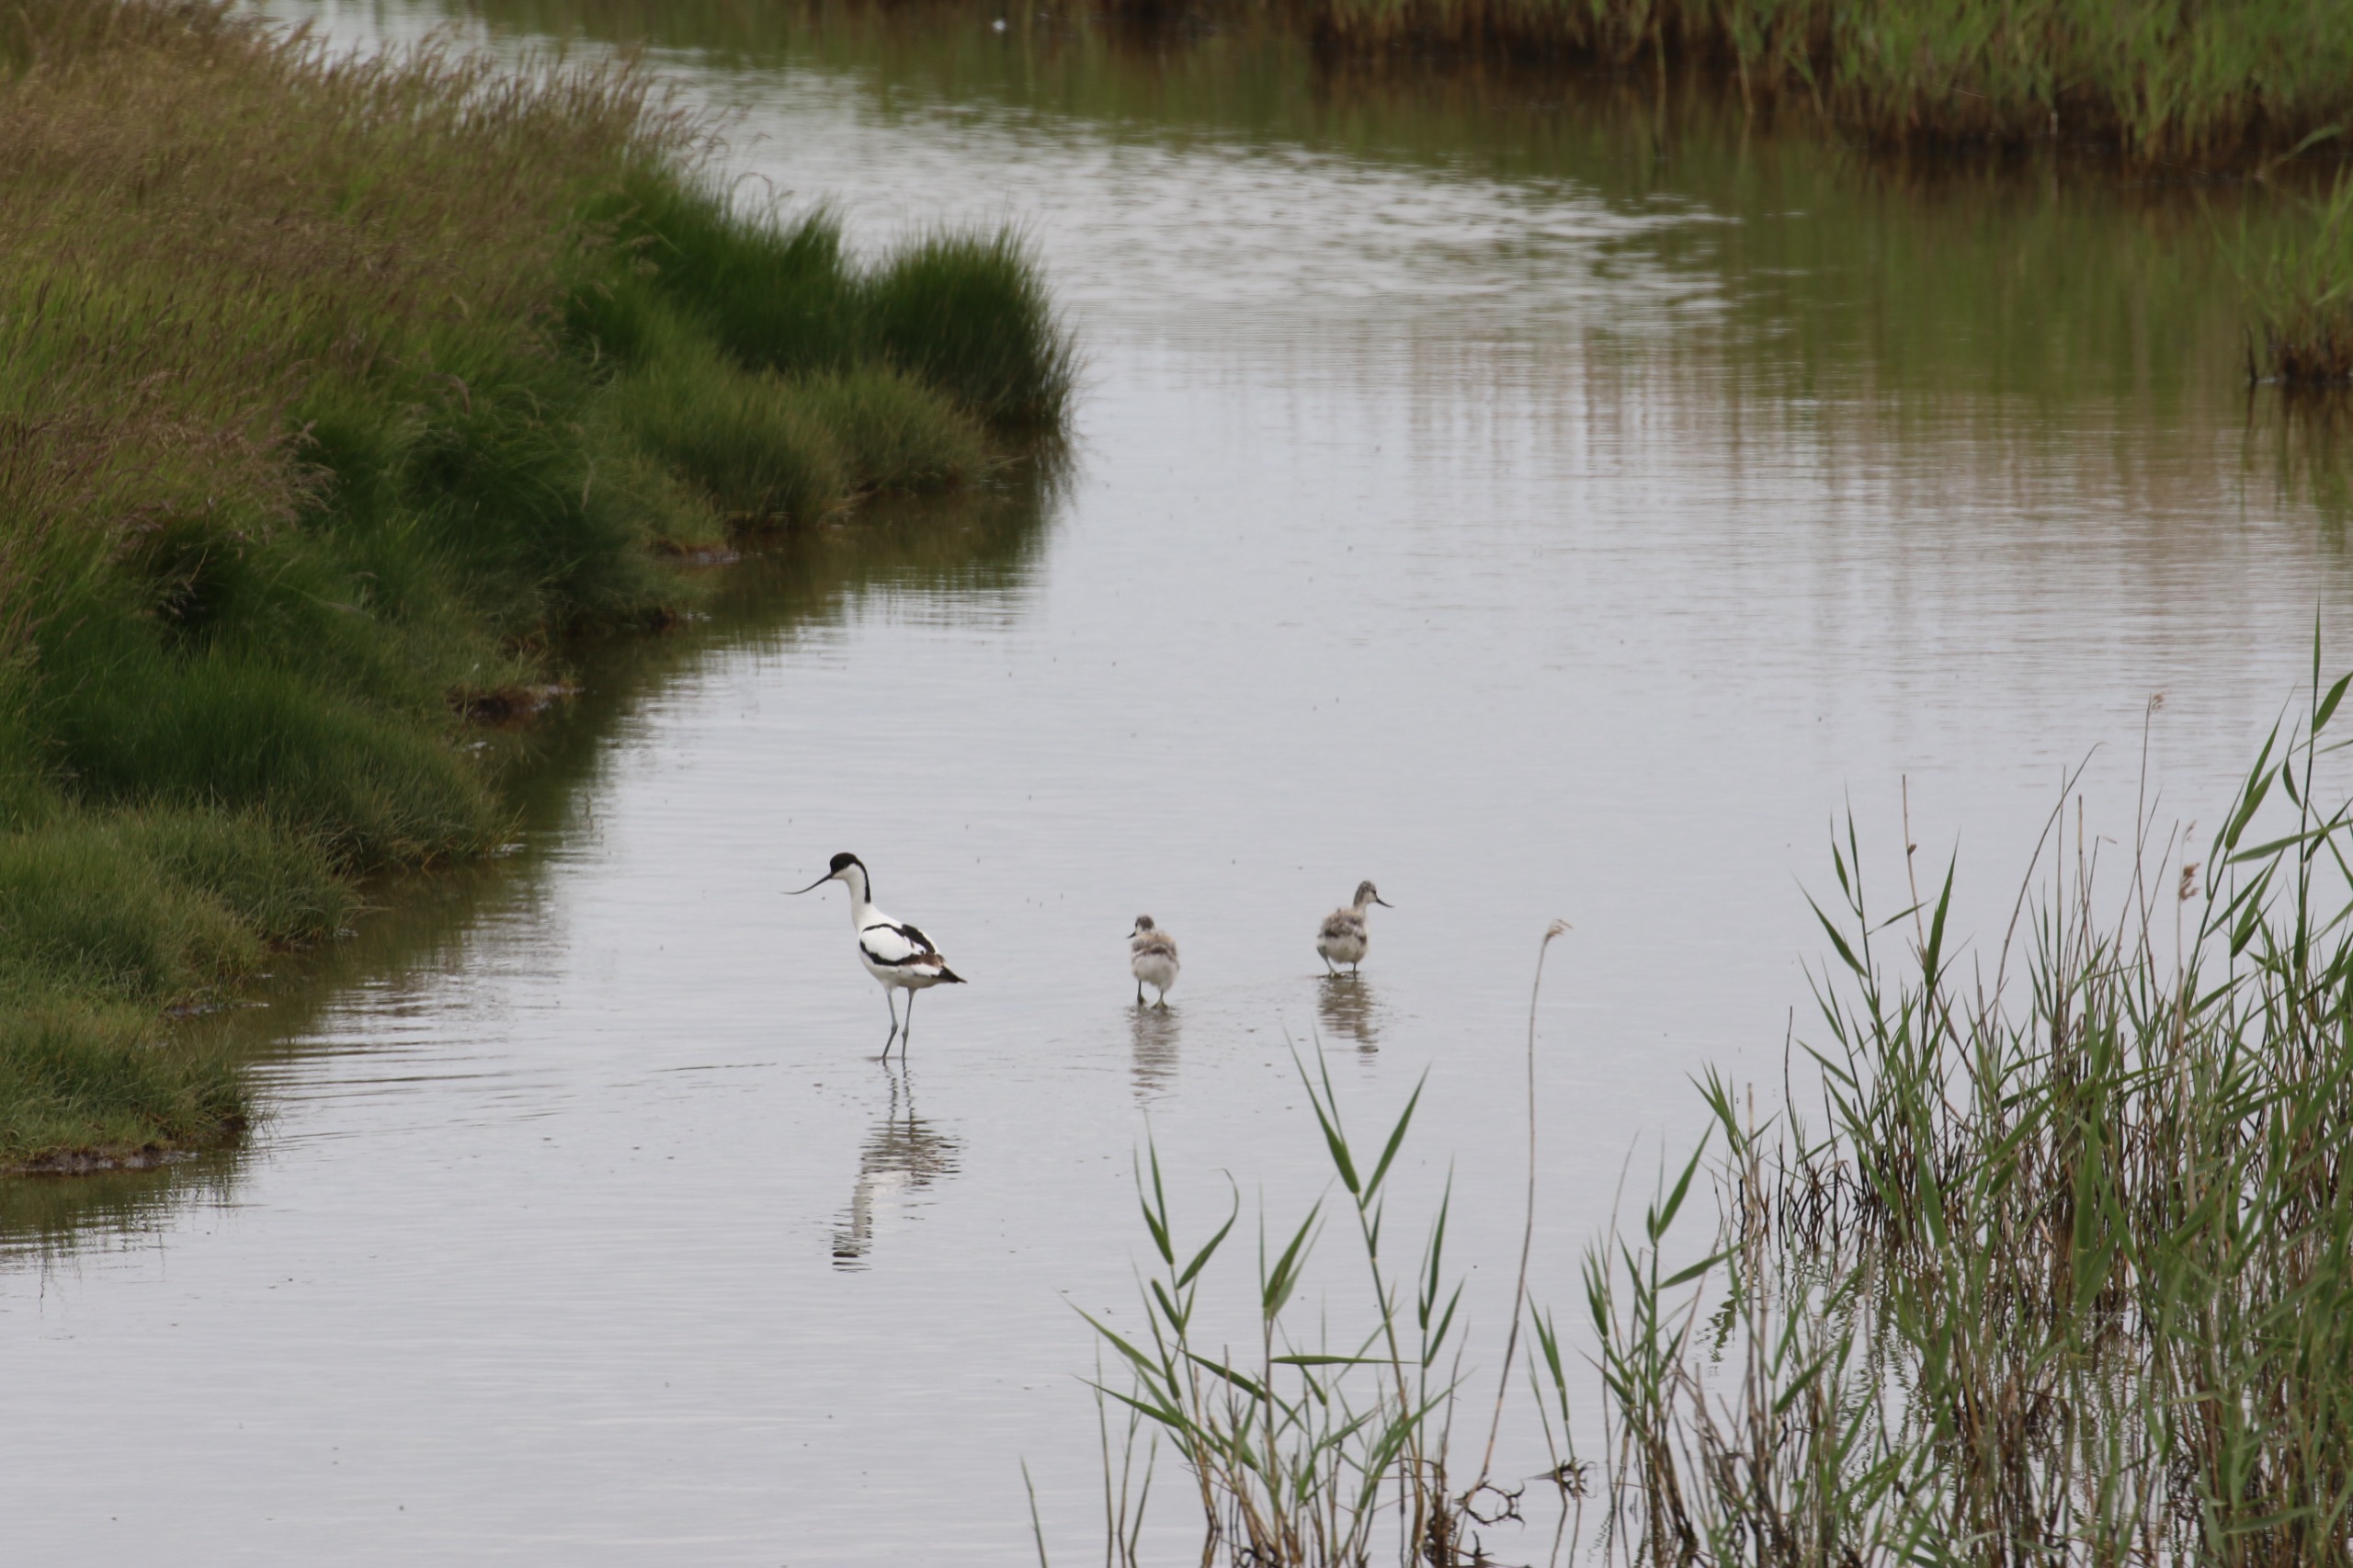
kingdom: Animalia
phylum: Chordata
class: Aves
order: Charadriiformes
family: Recurvirostridae
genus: Recurvirostra
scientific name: Recurvirostra avosetta
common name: Klyde
